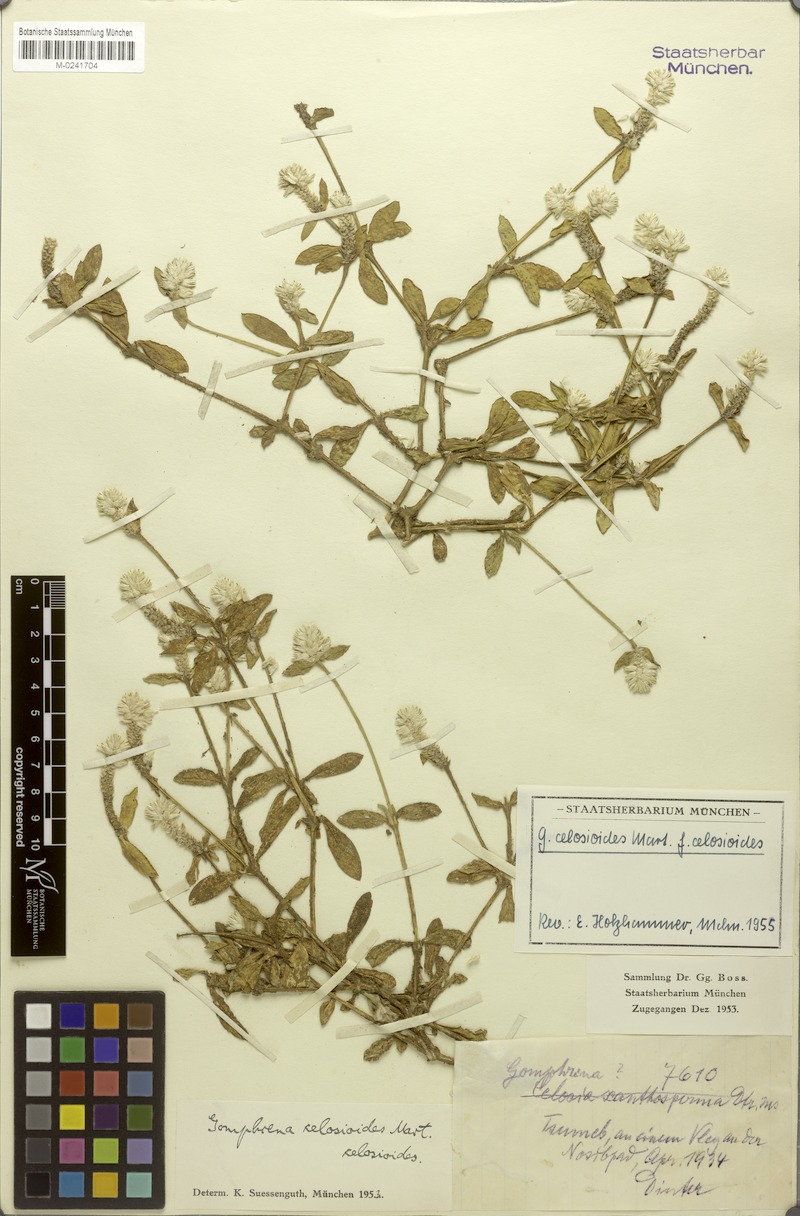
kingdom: Plantae
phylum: Tracheophyta
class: Magnoliopsida
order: Caryophyllales
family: Amaranthaceae
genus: Gomphrena
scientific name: Gomphrena celosioides
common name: Gomphrena-weed
